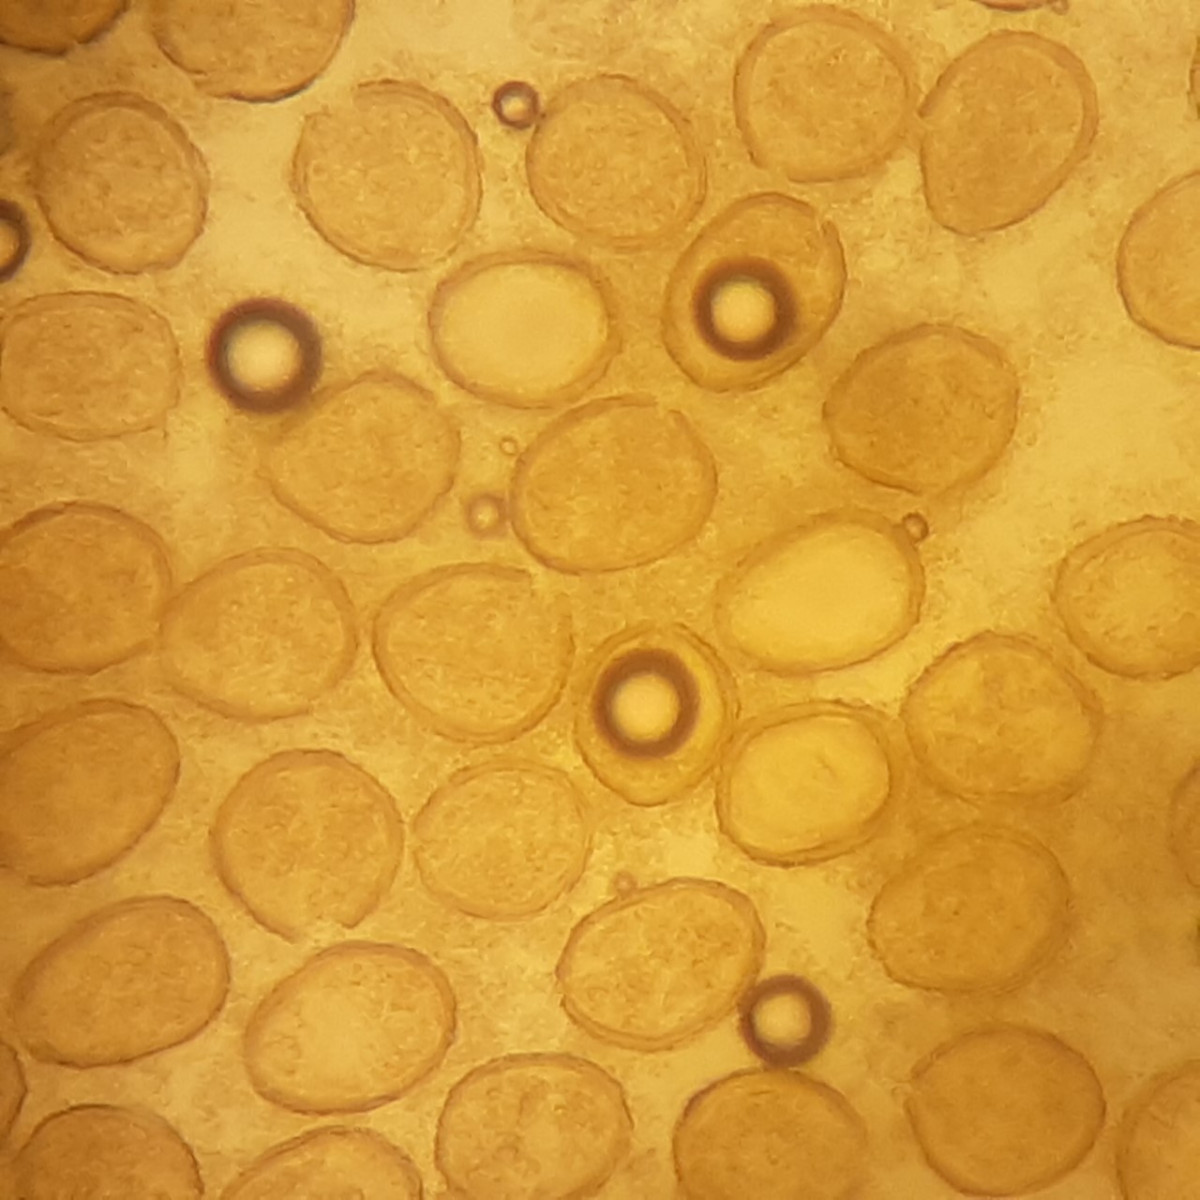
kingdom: Fungi
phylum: Basidiomycota
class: Pucciniomycetes
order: Pucciniales
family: Pucciniaceae
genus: Puccinia
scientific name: Puccinia menthae
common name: Mint rust
